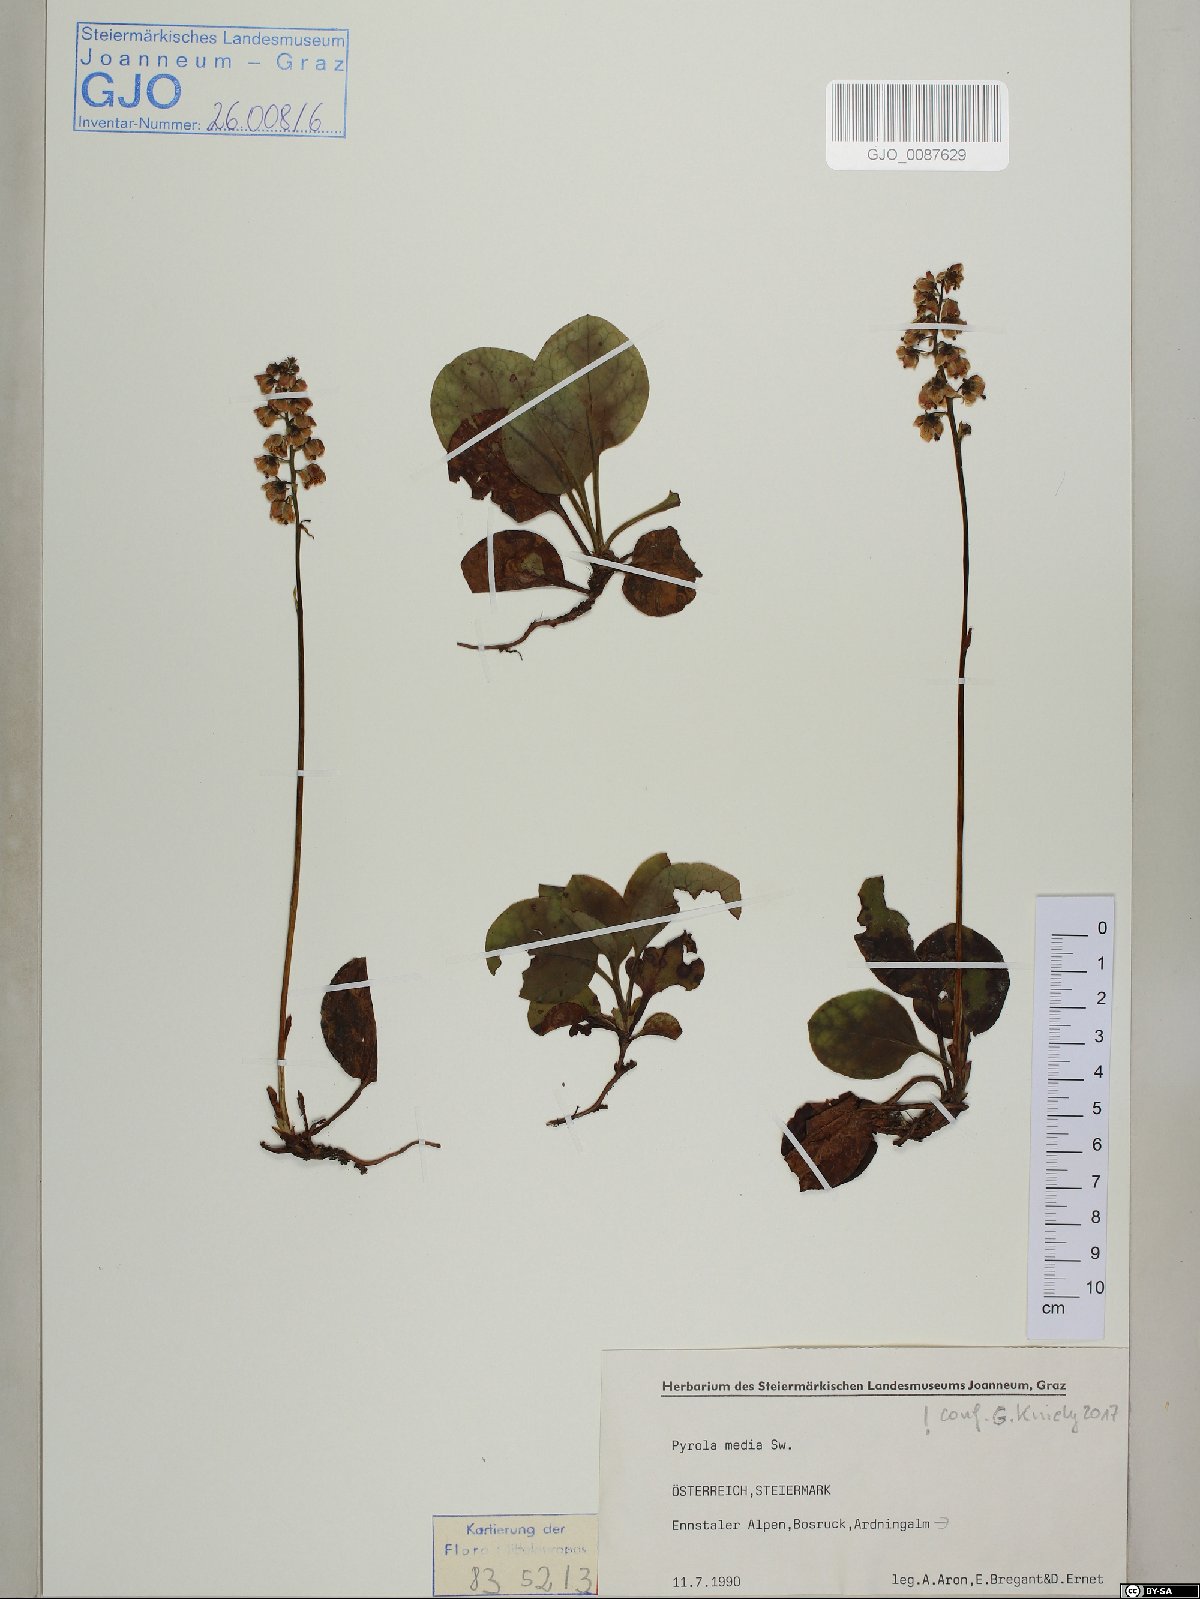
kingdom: Plantae
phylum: Tracheophyta
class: Magnoliopsida
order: Ericales
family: Ericaceae
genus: Pyrola
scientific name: Pyrola media
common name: Intermediate wintergreen
